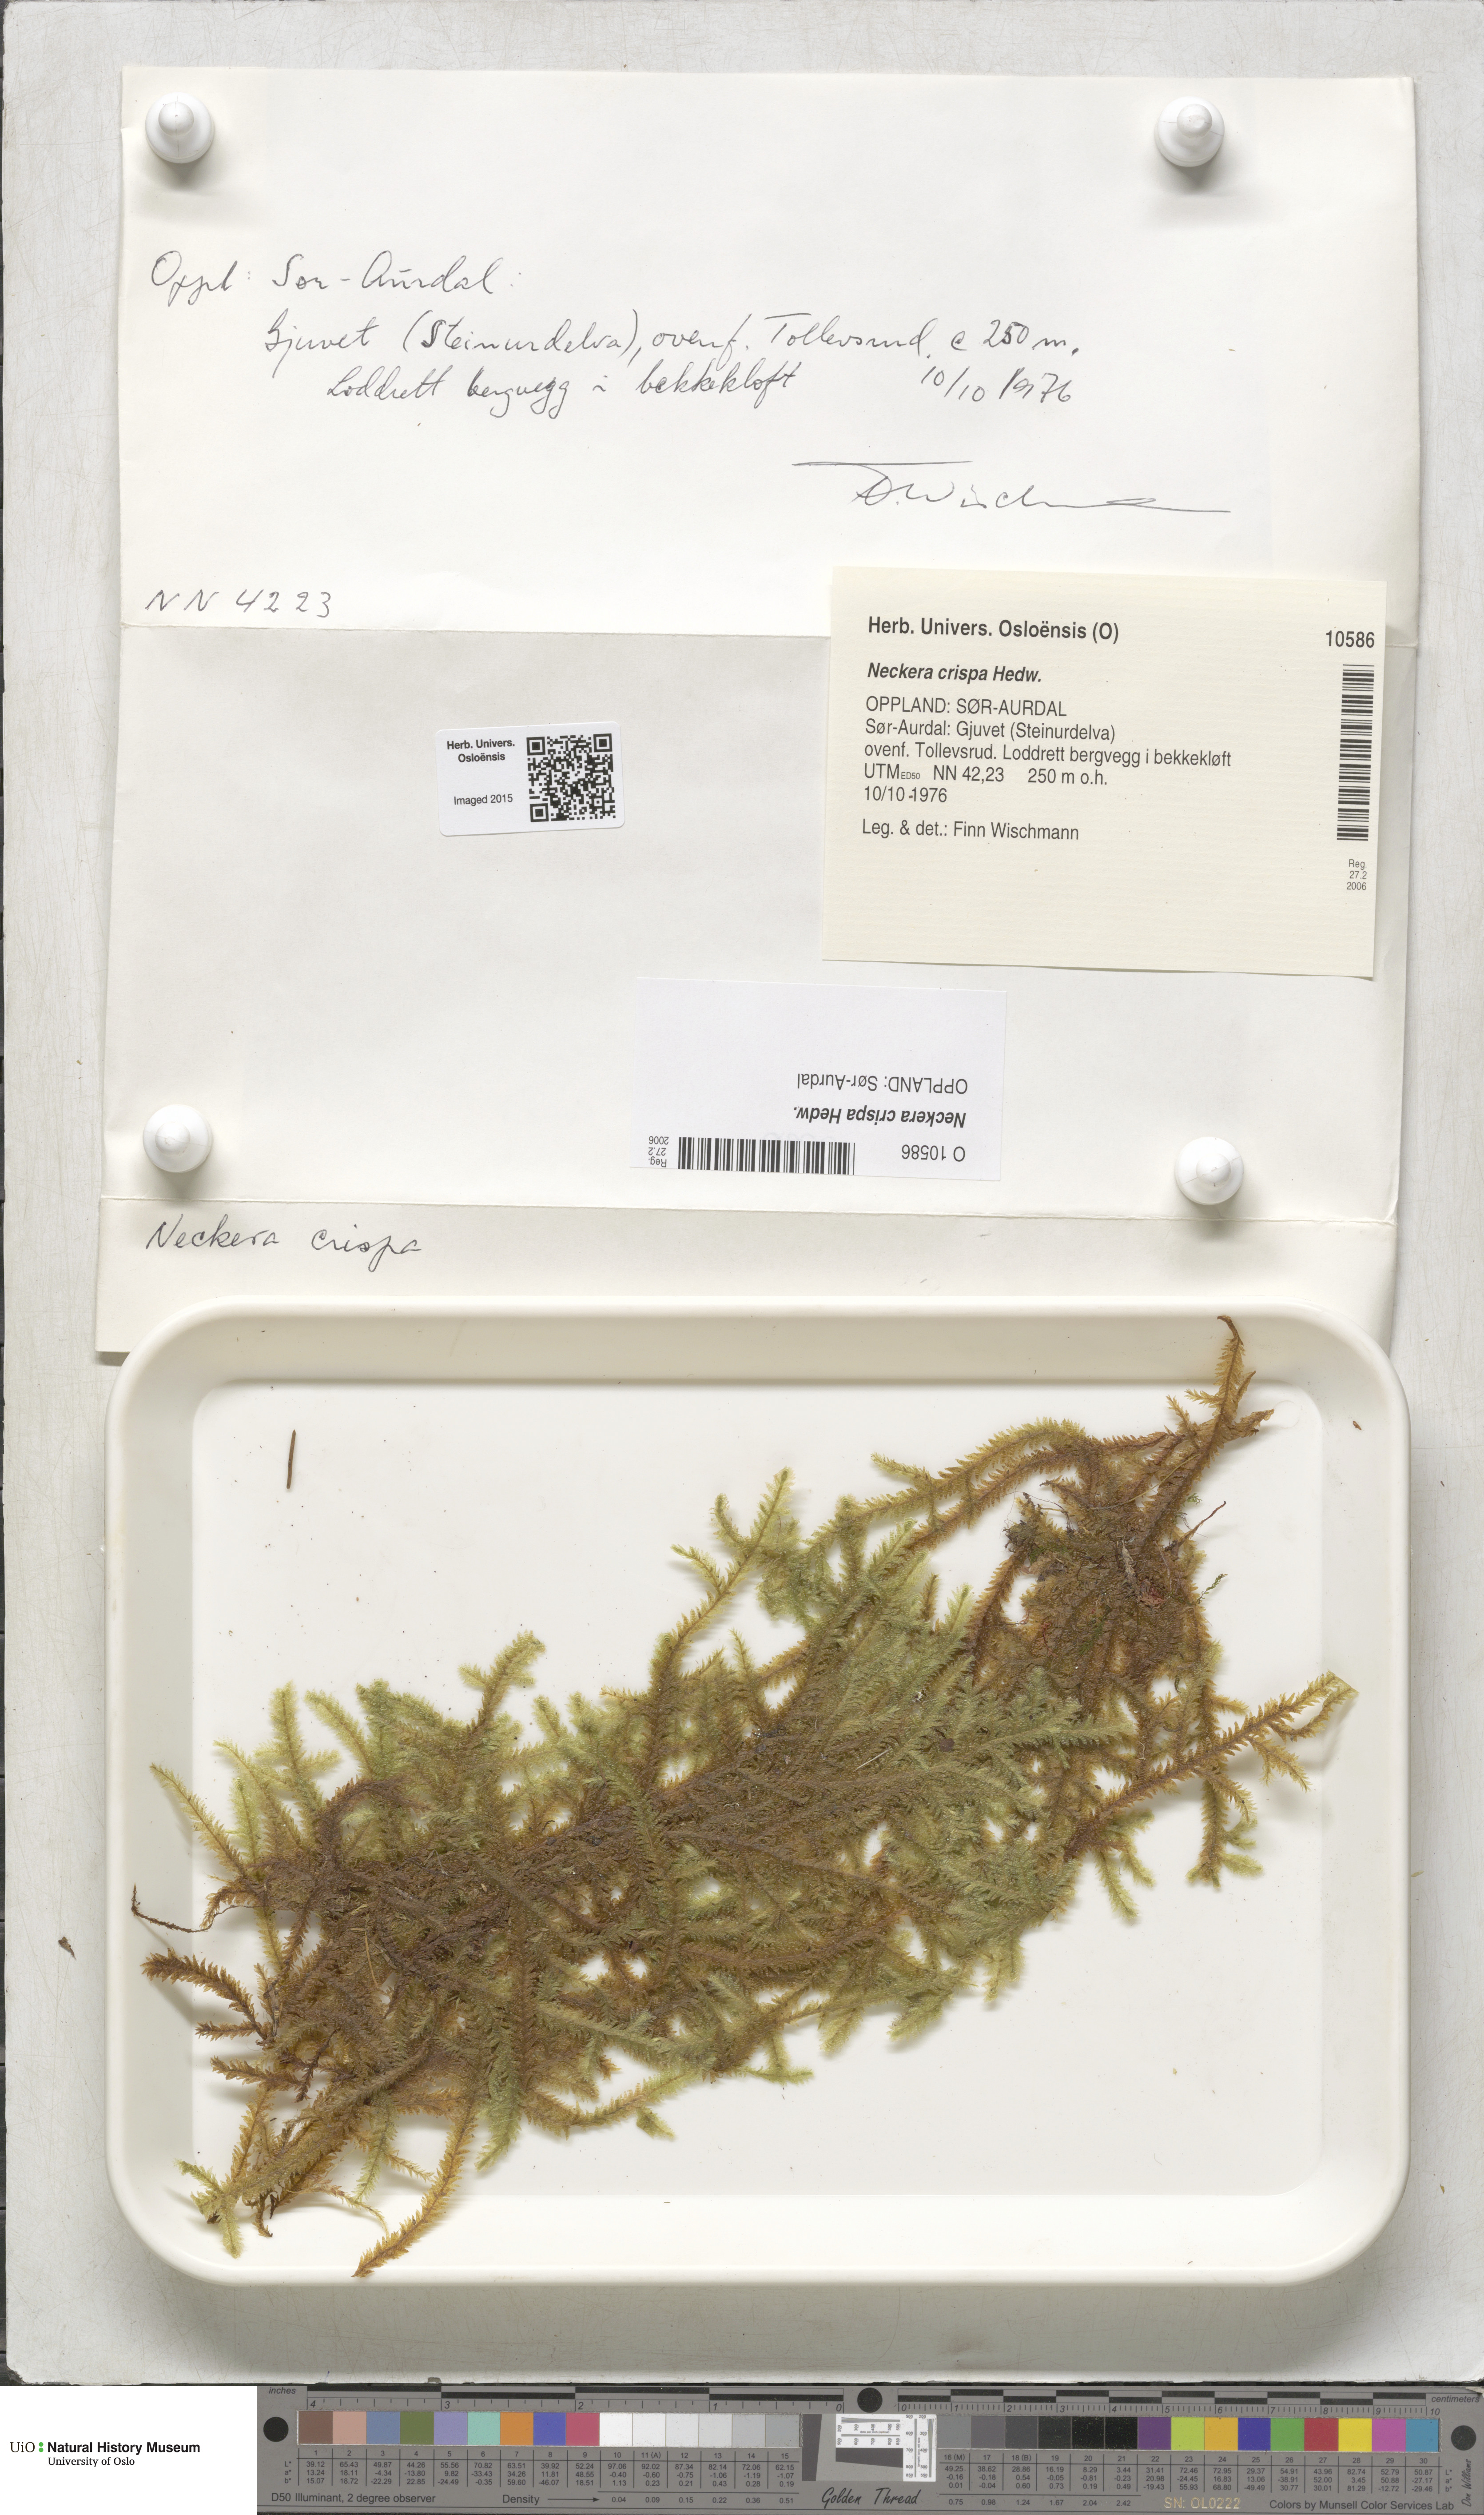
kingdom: Plantae
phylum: Bryophyta
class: Bryopsida
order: Hypnales
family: Neckeraceae
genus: Exsertotheca
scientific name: Exsertotheca crispa
